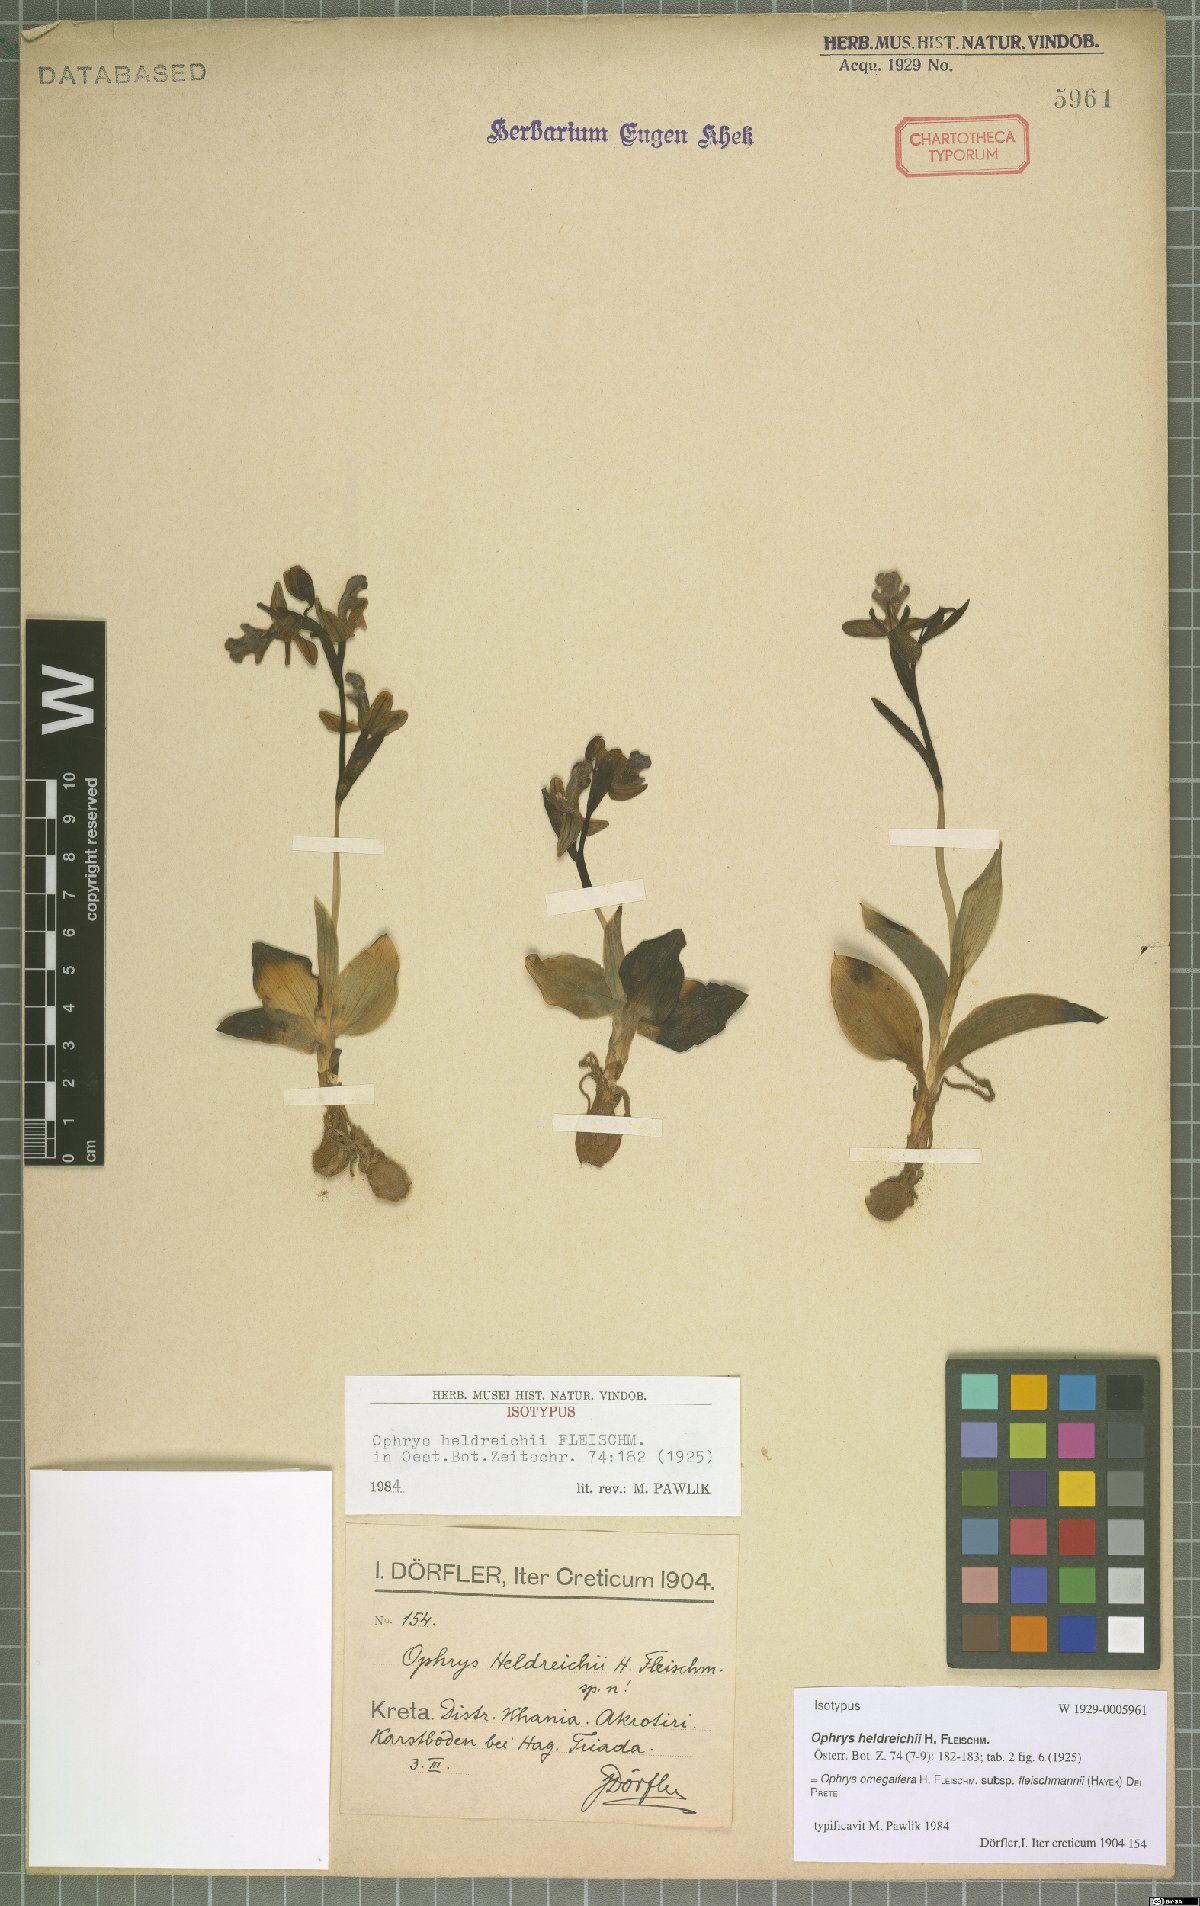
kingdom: Plantae
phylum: Tracheophyta
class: Liliopsida
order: Asparagales
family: Orchidaceae
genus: Ophrys
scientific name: Ophrys omegaifera
